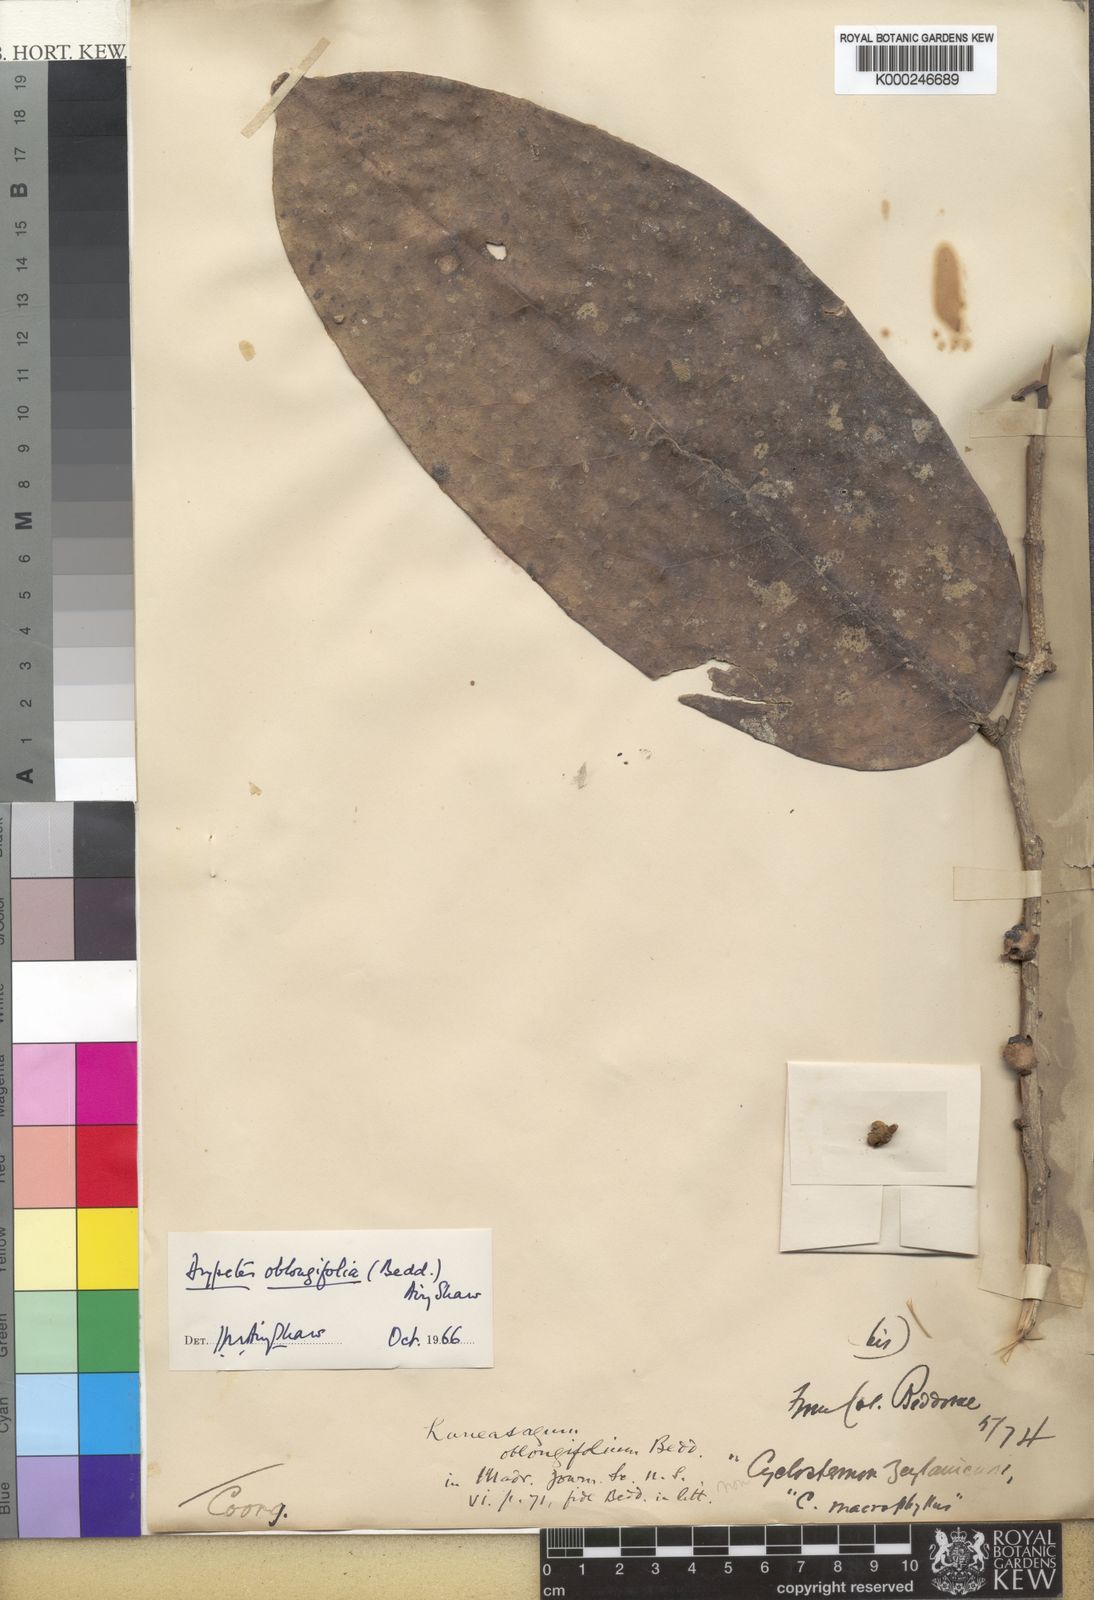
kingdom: Plantae
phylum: Tracheophyta
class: Magnoliopsida
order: Malpighiales
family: Putranjivaceae
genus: Drypetes
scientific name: Drypetes oblongifolia
